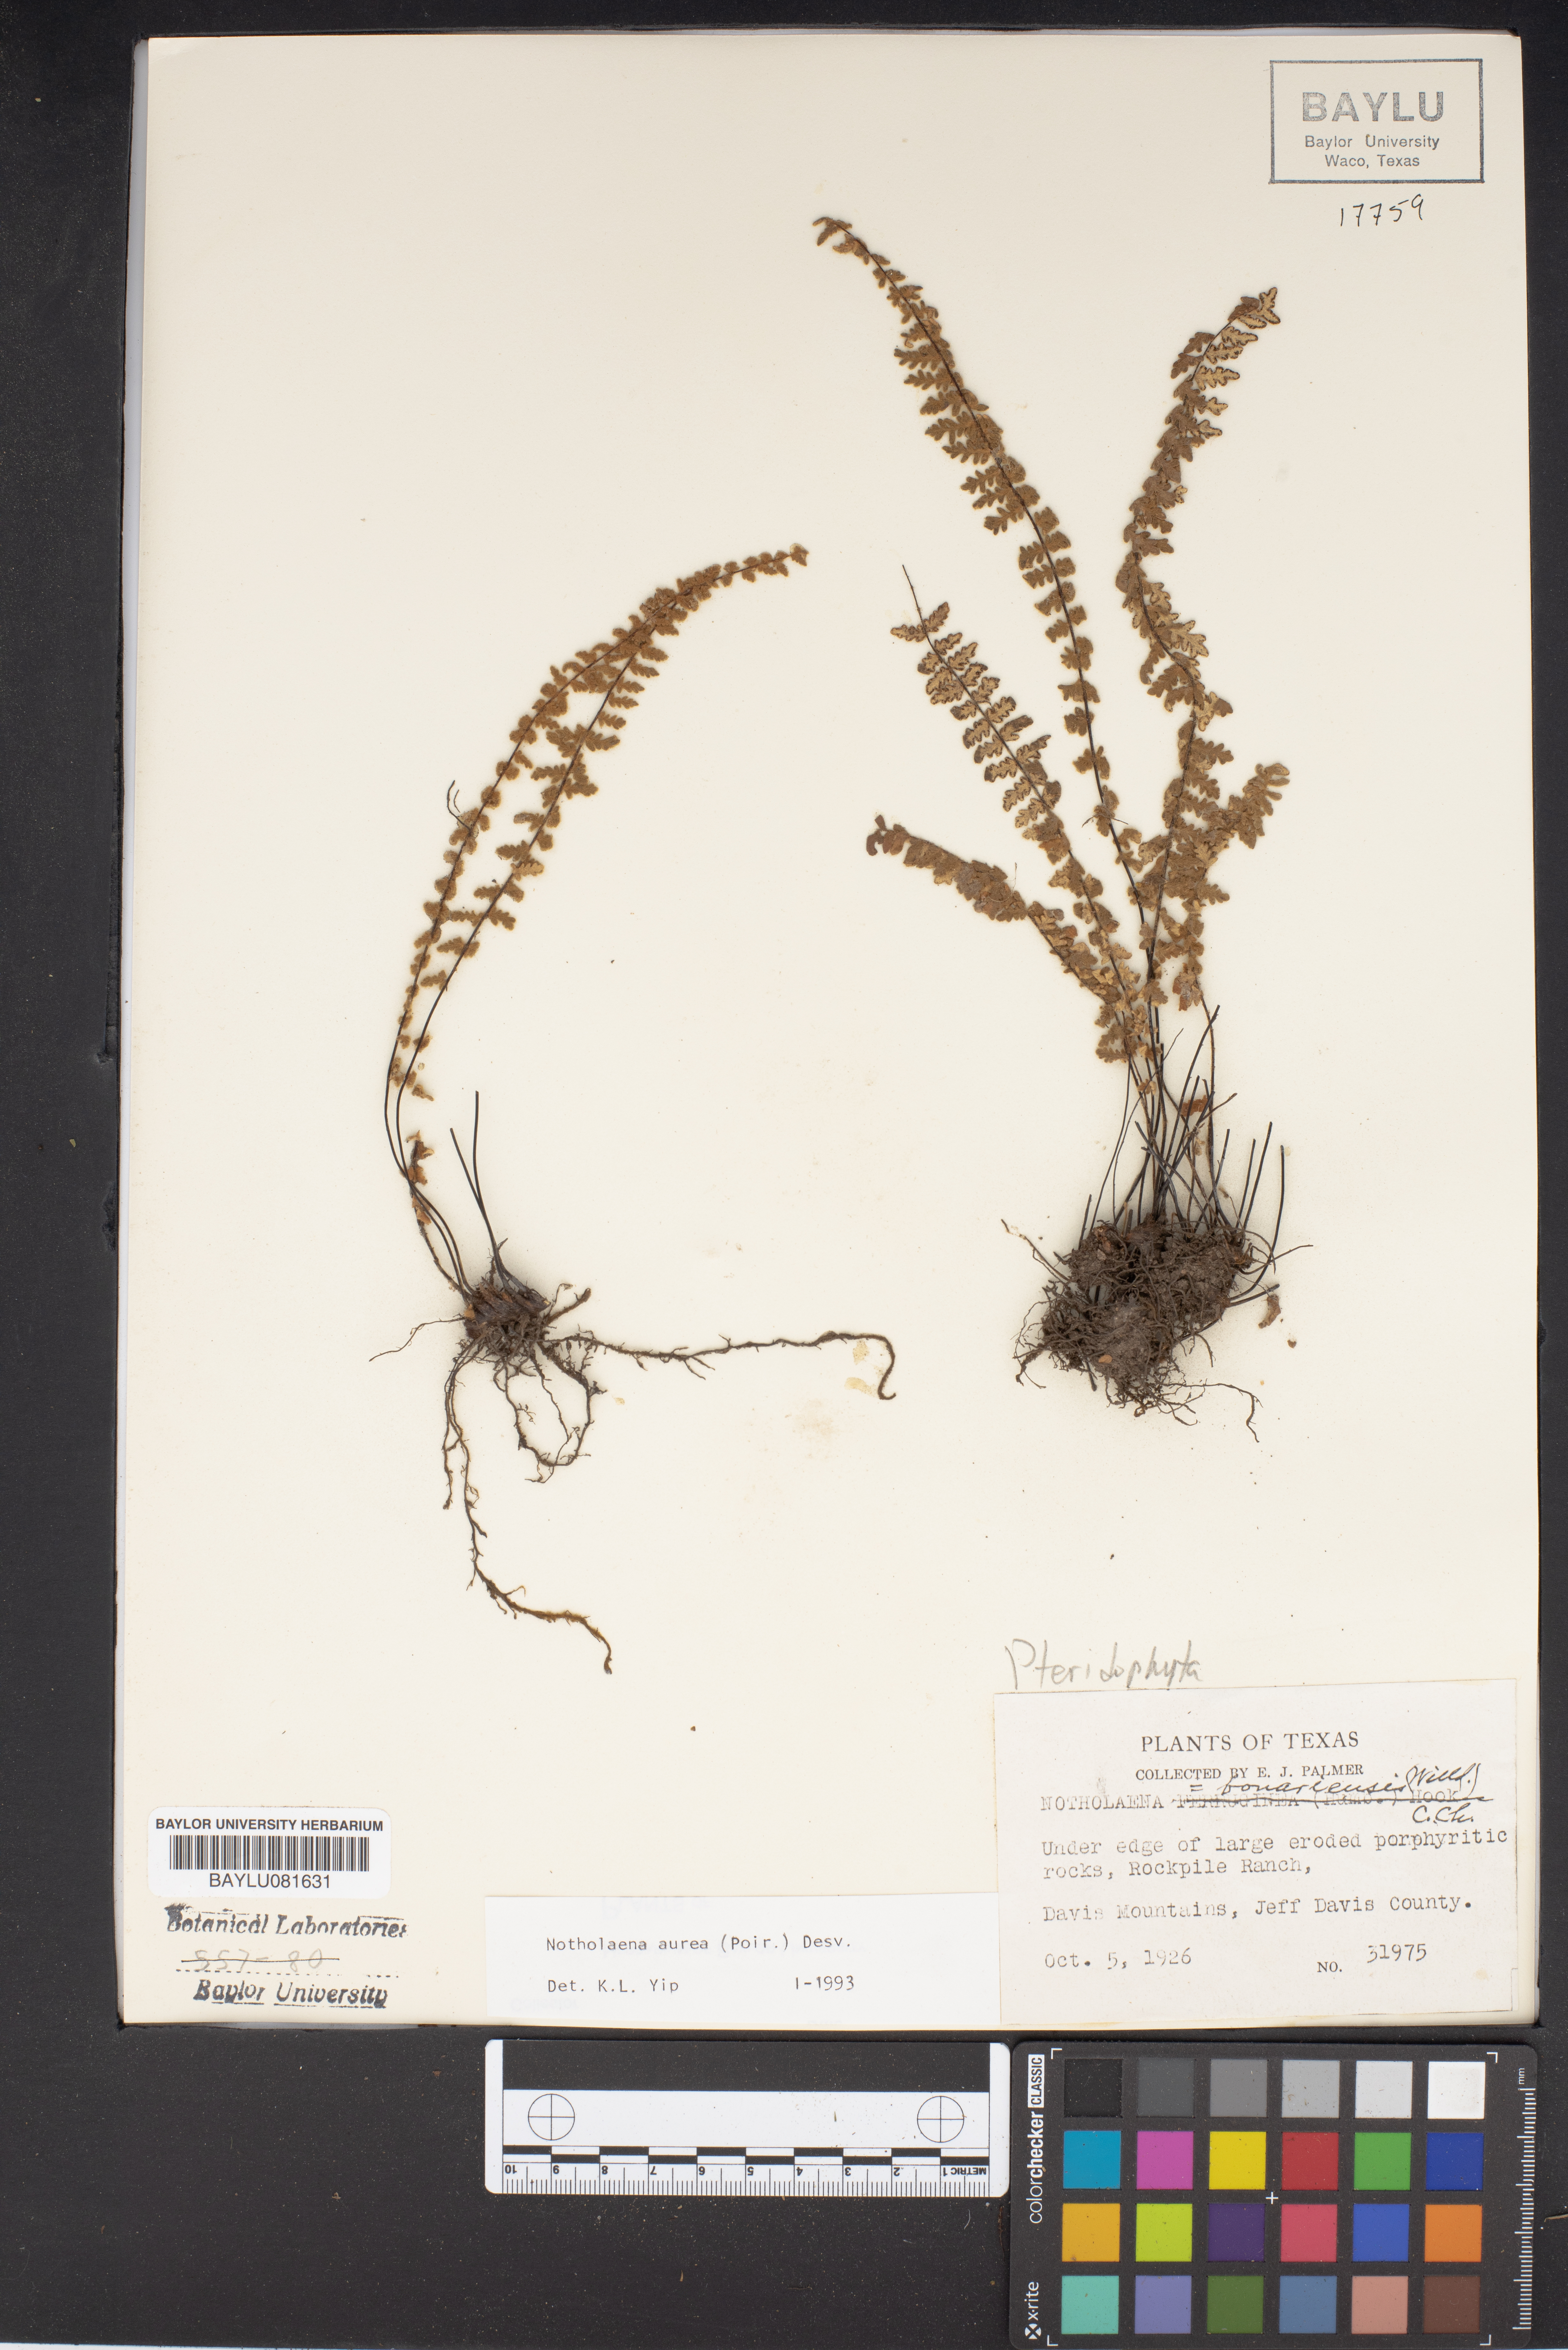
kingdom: Plantae
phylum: Tracheophyta
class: Polypodiopsida
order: Polypodiales
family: Pteridaceae
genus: Notholaena
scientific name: Notholaena
